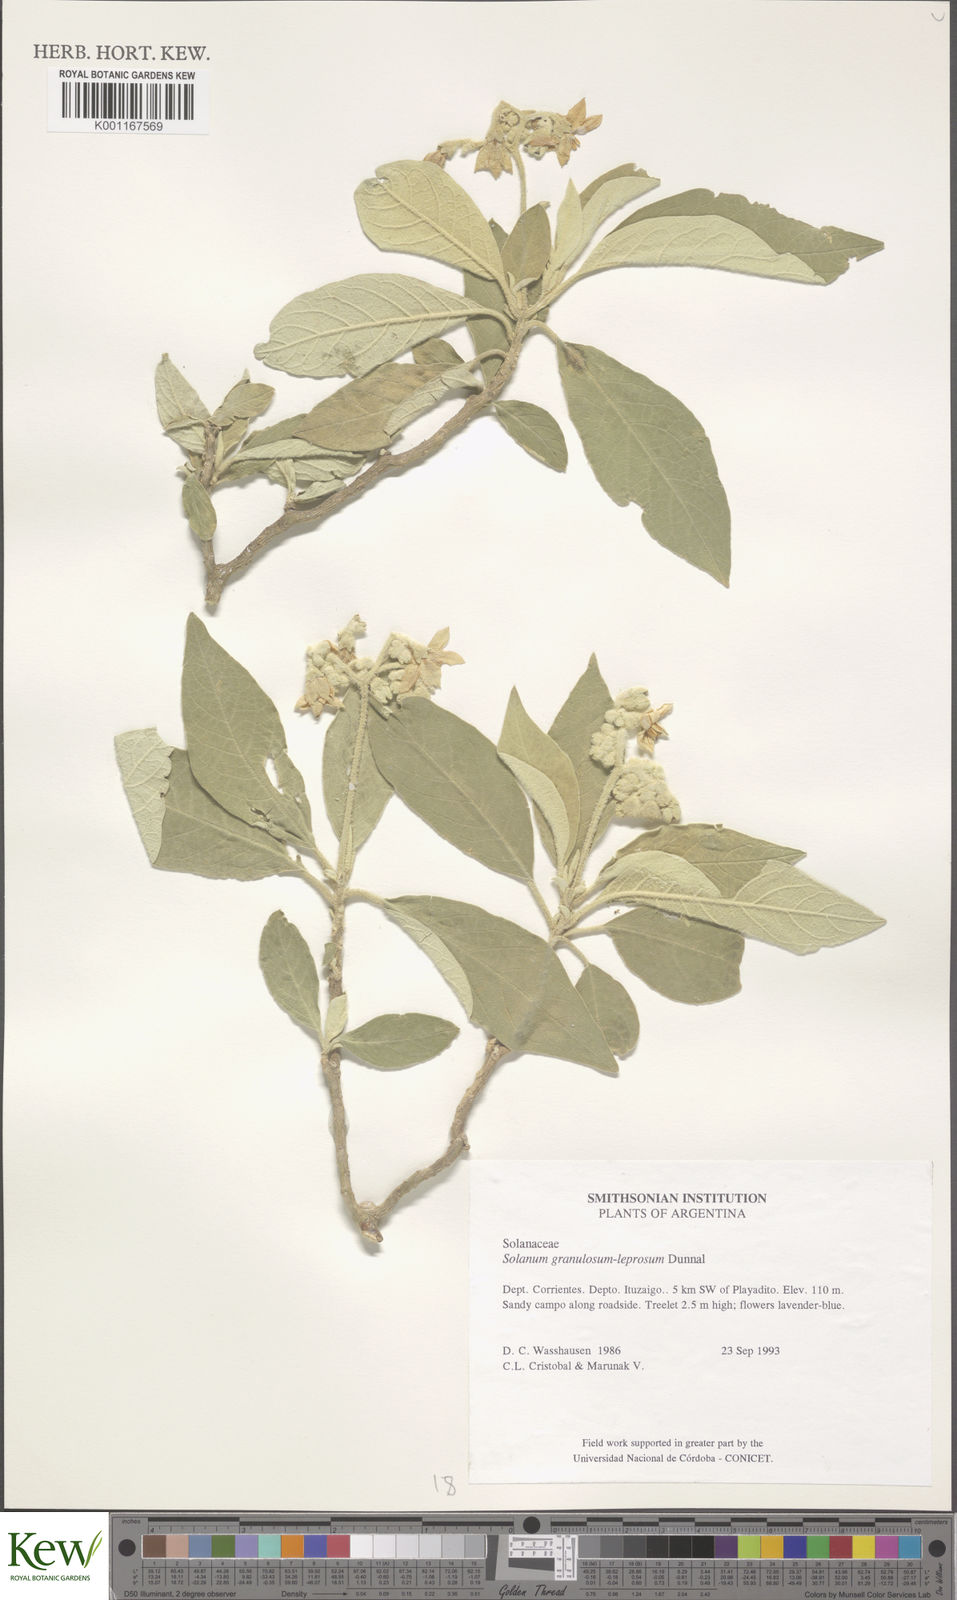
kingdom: Plantae
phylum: Tracheophyta
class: Magnoliopsida
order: Solanales
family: Solanaceae
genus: Solanum
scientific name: Solanum granulosoleprosum
